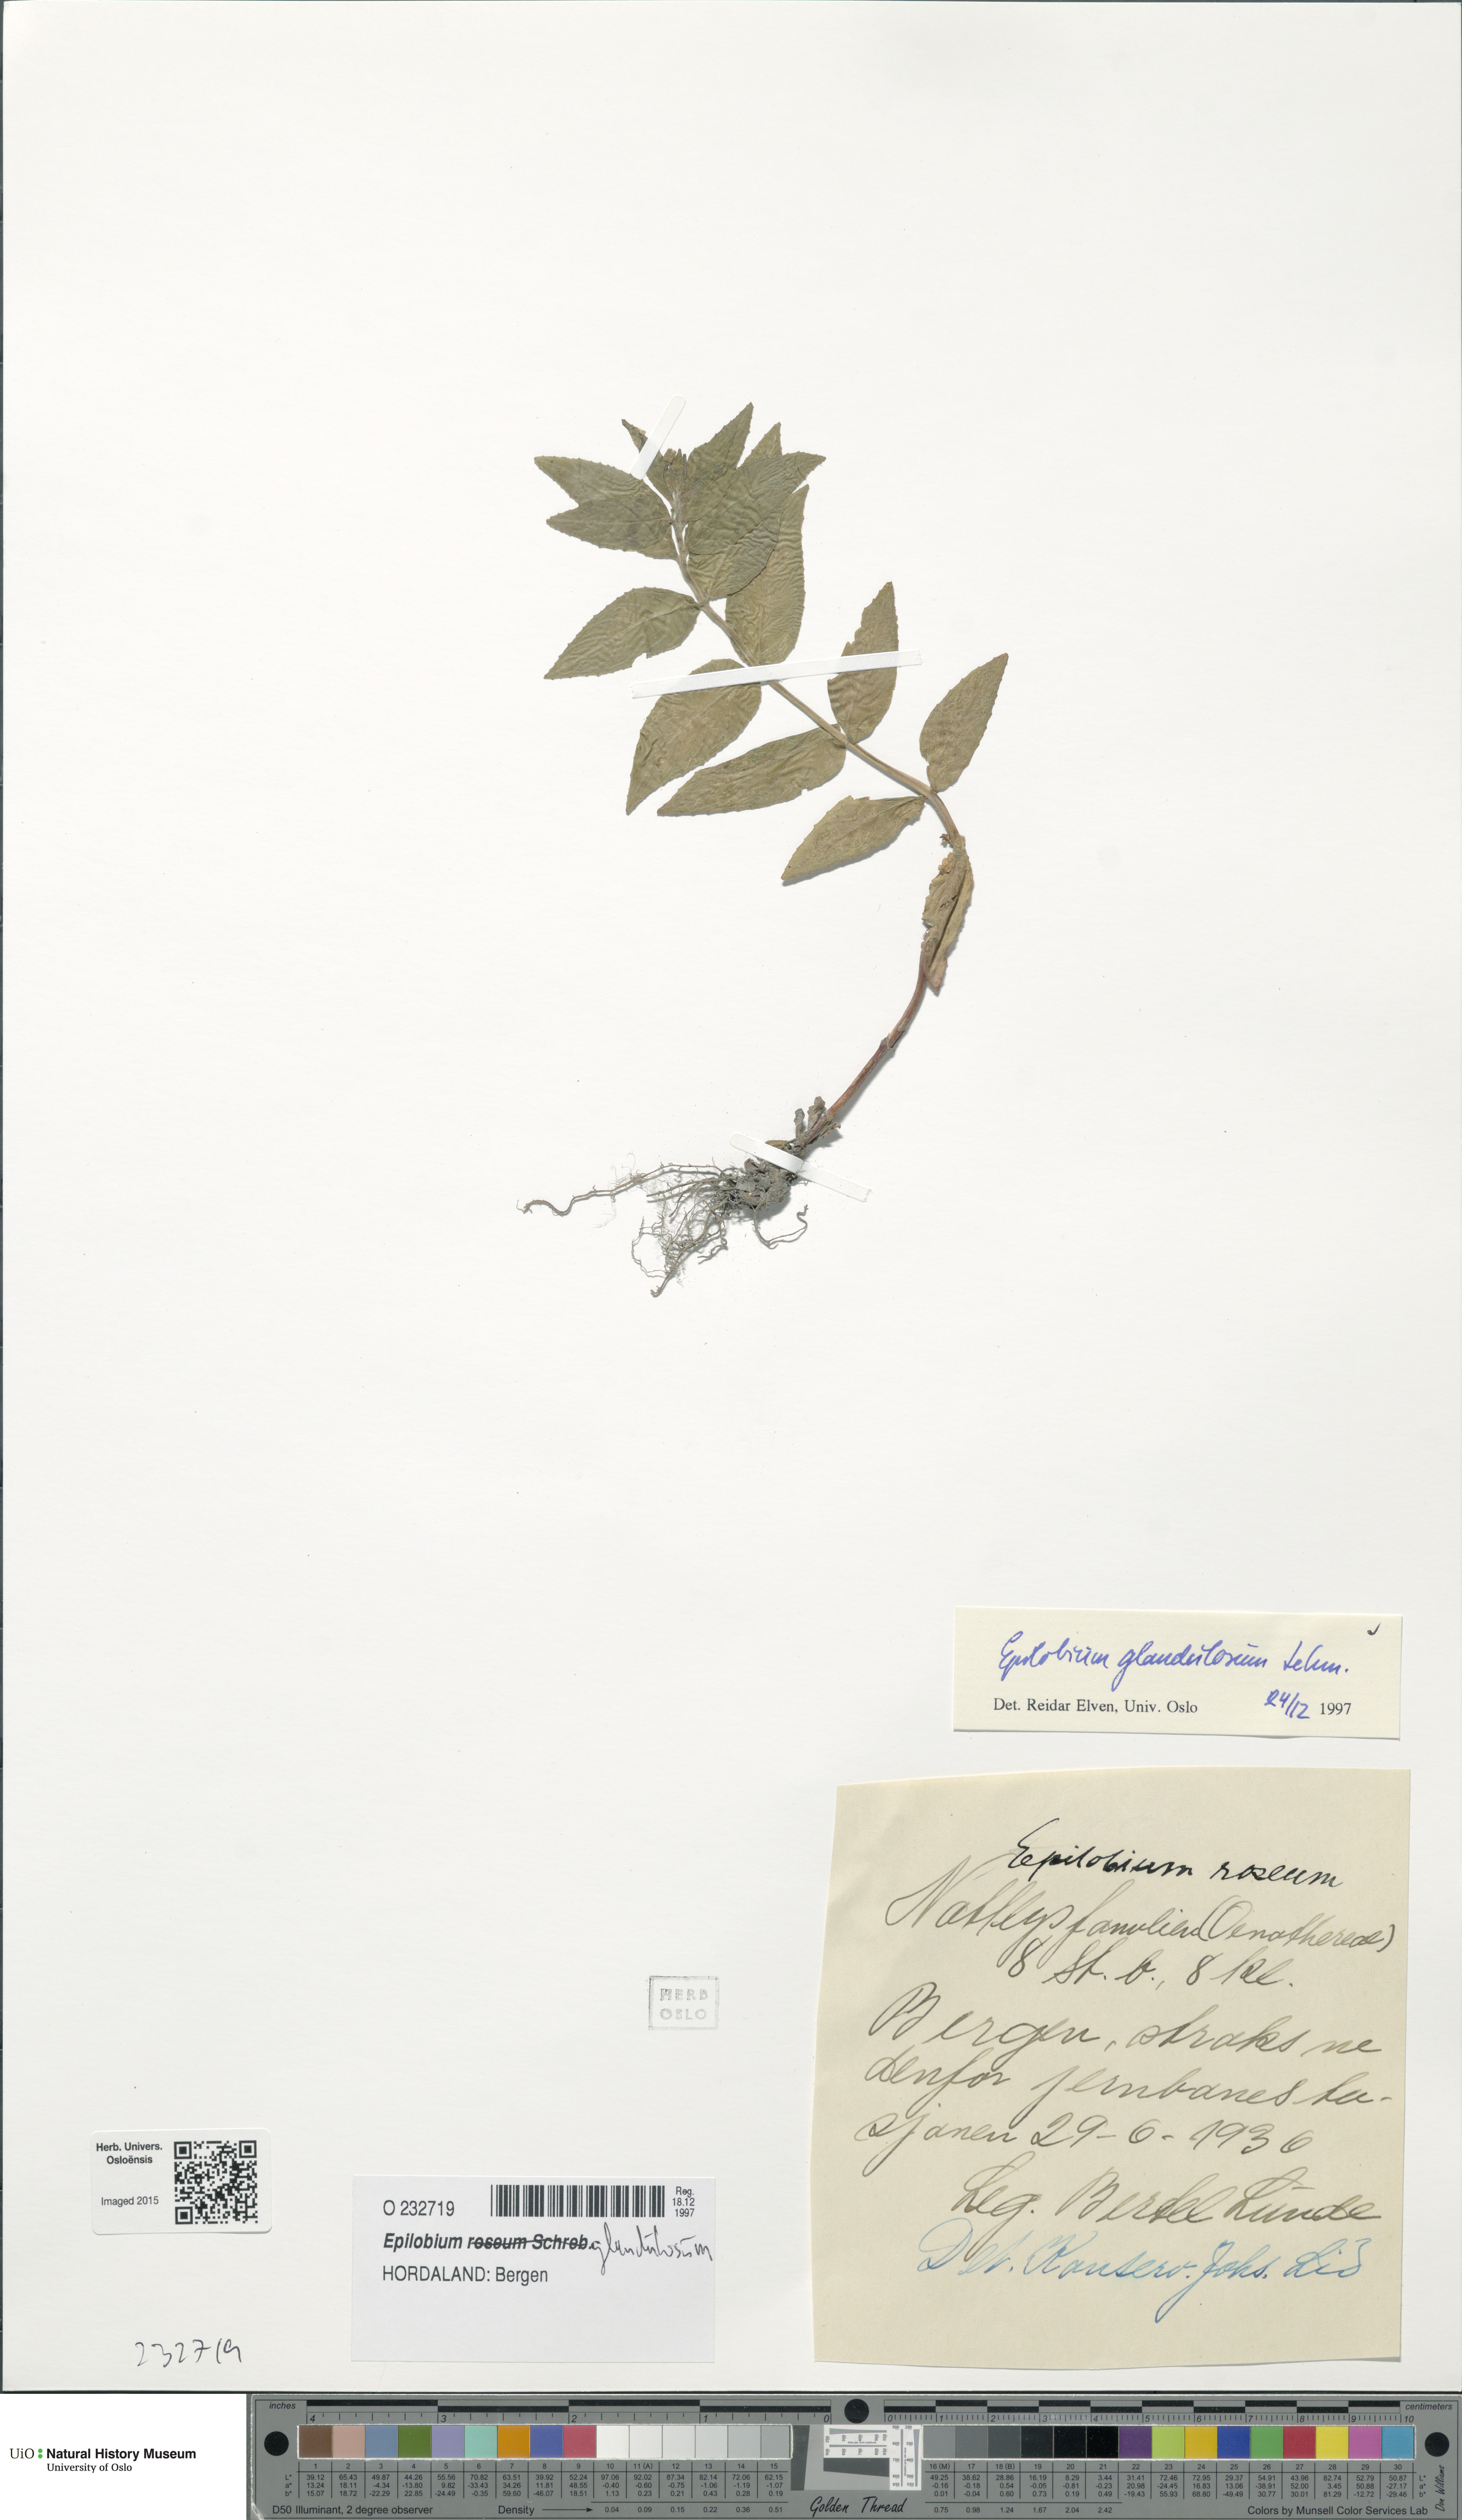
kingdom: Plantae
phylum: Tracheophyta
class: Magnoliopsida
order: Myrtales
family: Onagraceae
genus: Epilobium
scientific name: Epilobium ciliatum
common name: American willowherb
